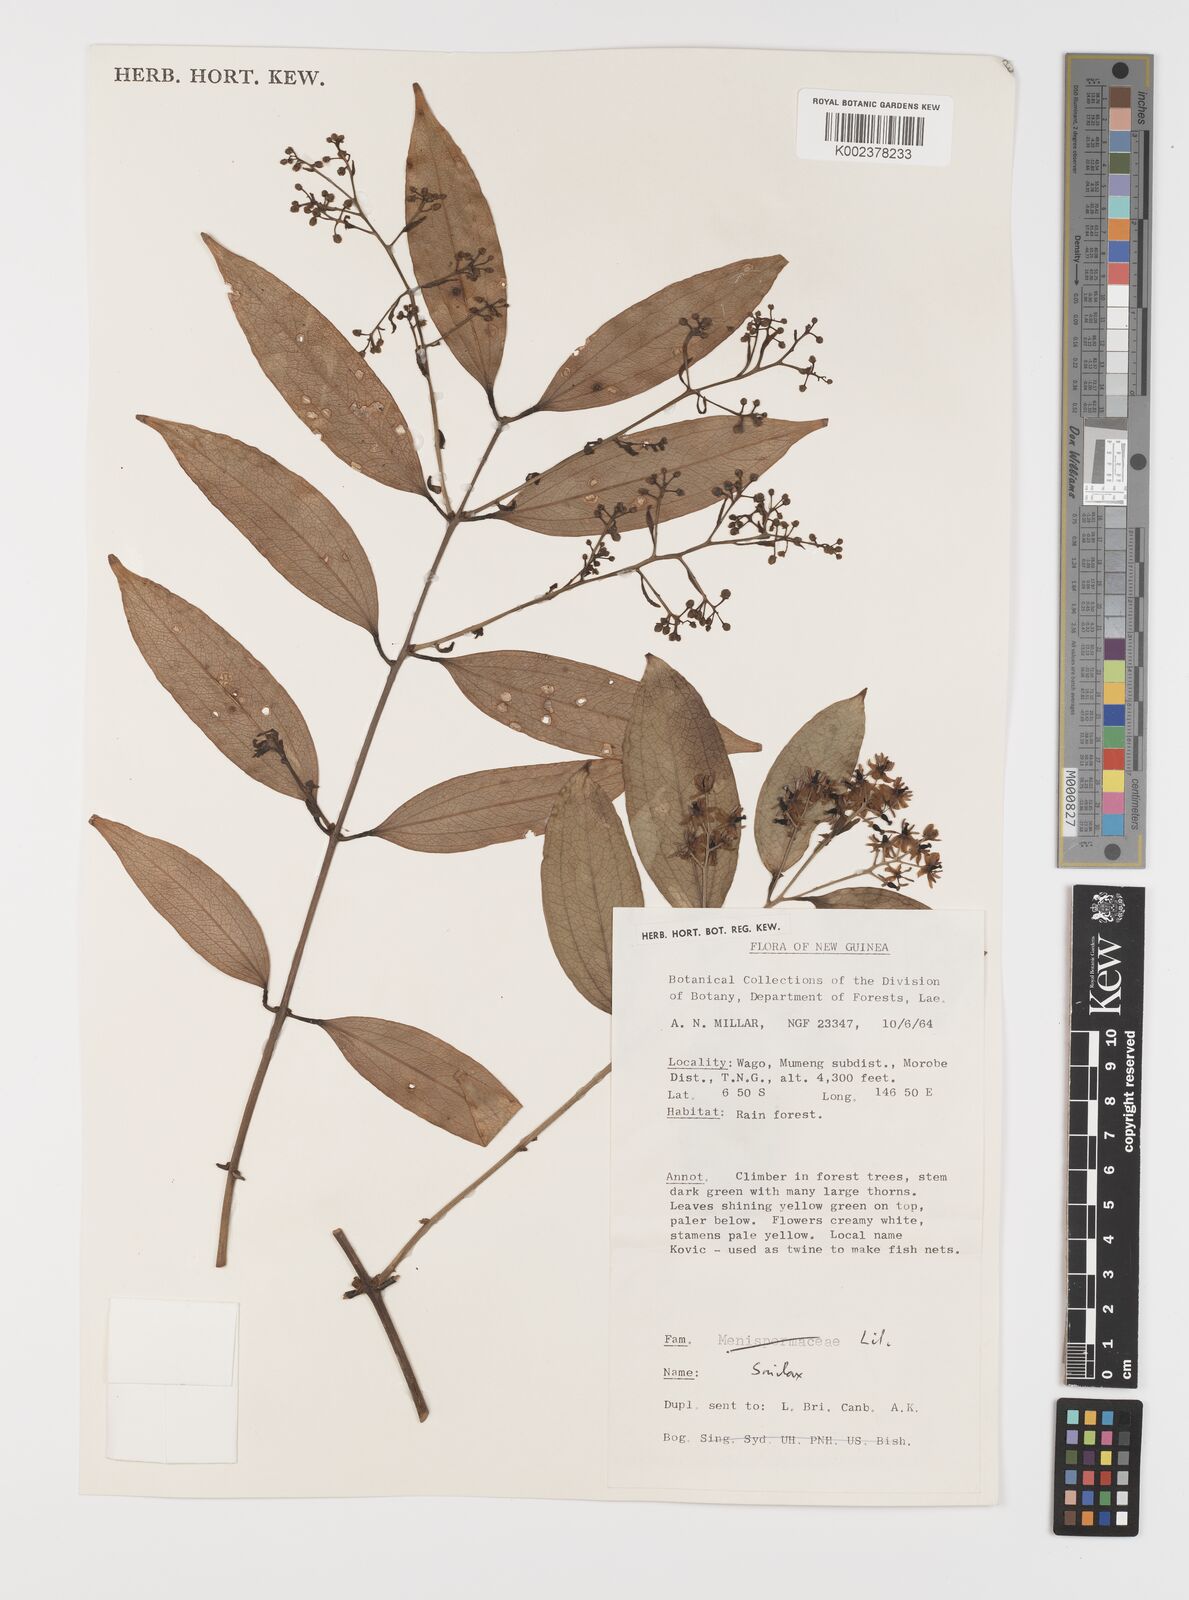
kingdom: Plantae
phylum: Tracheophyta
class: Liliopsida
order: Liliales
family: Smilacaceae
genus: Smilax
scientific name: Smilax
